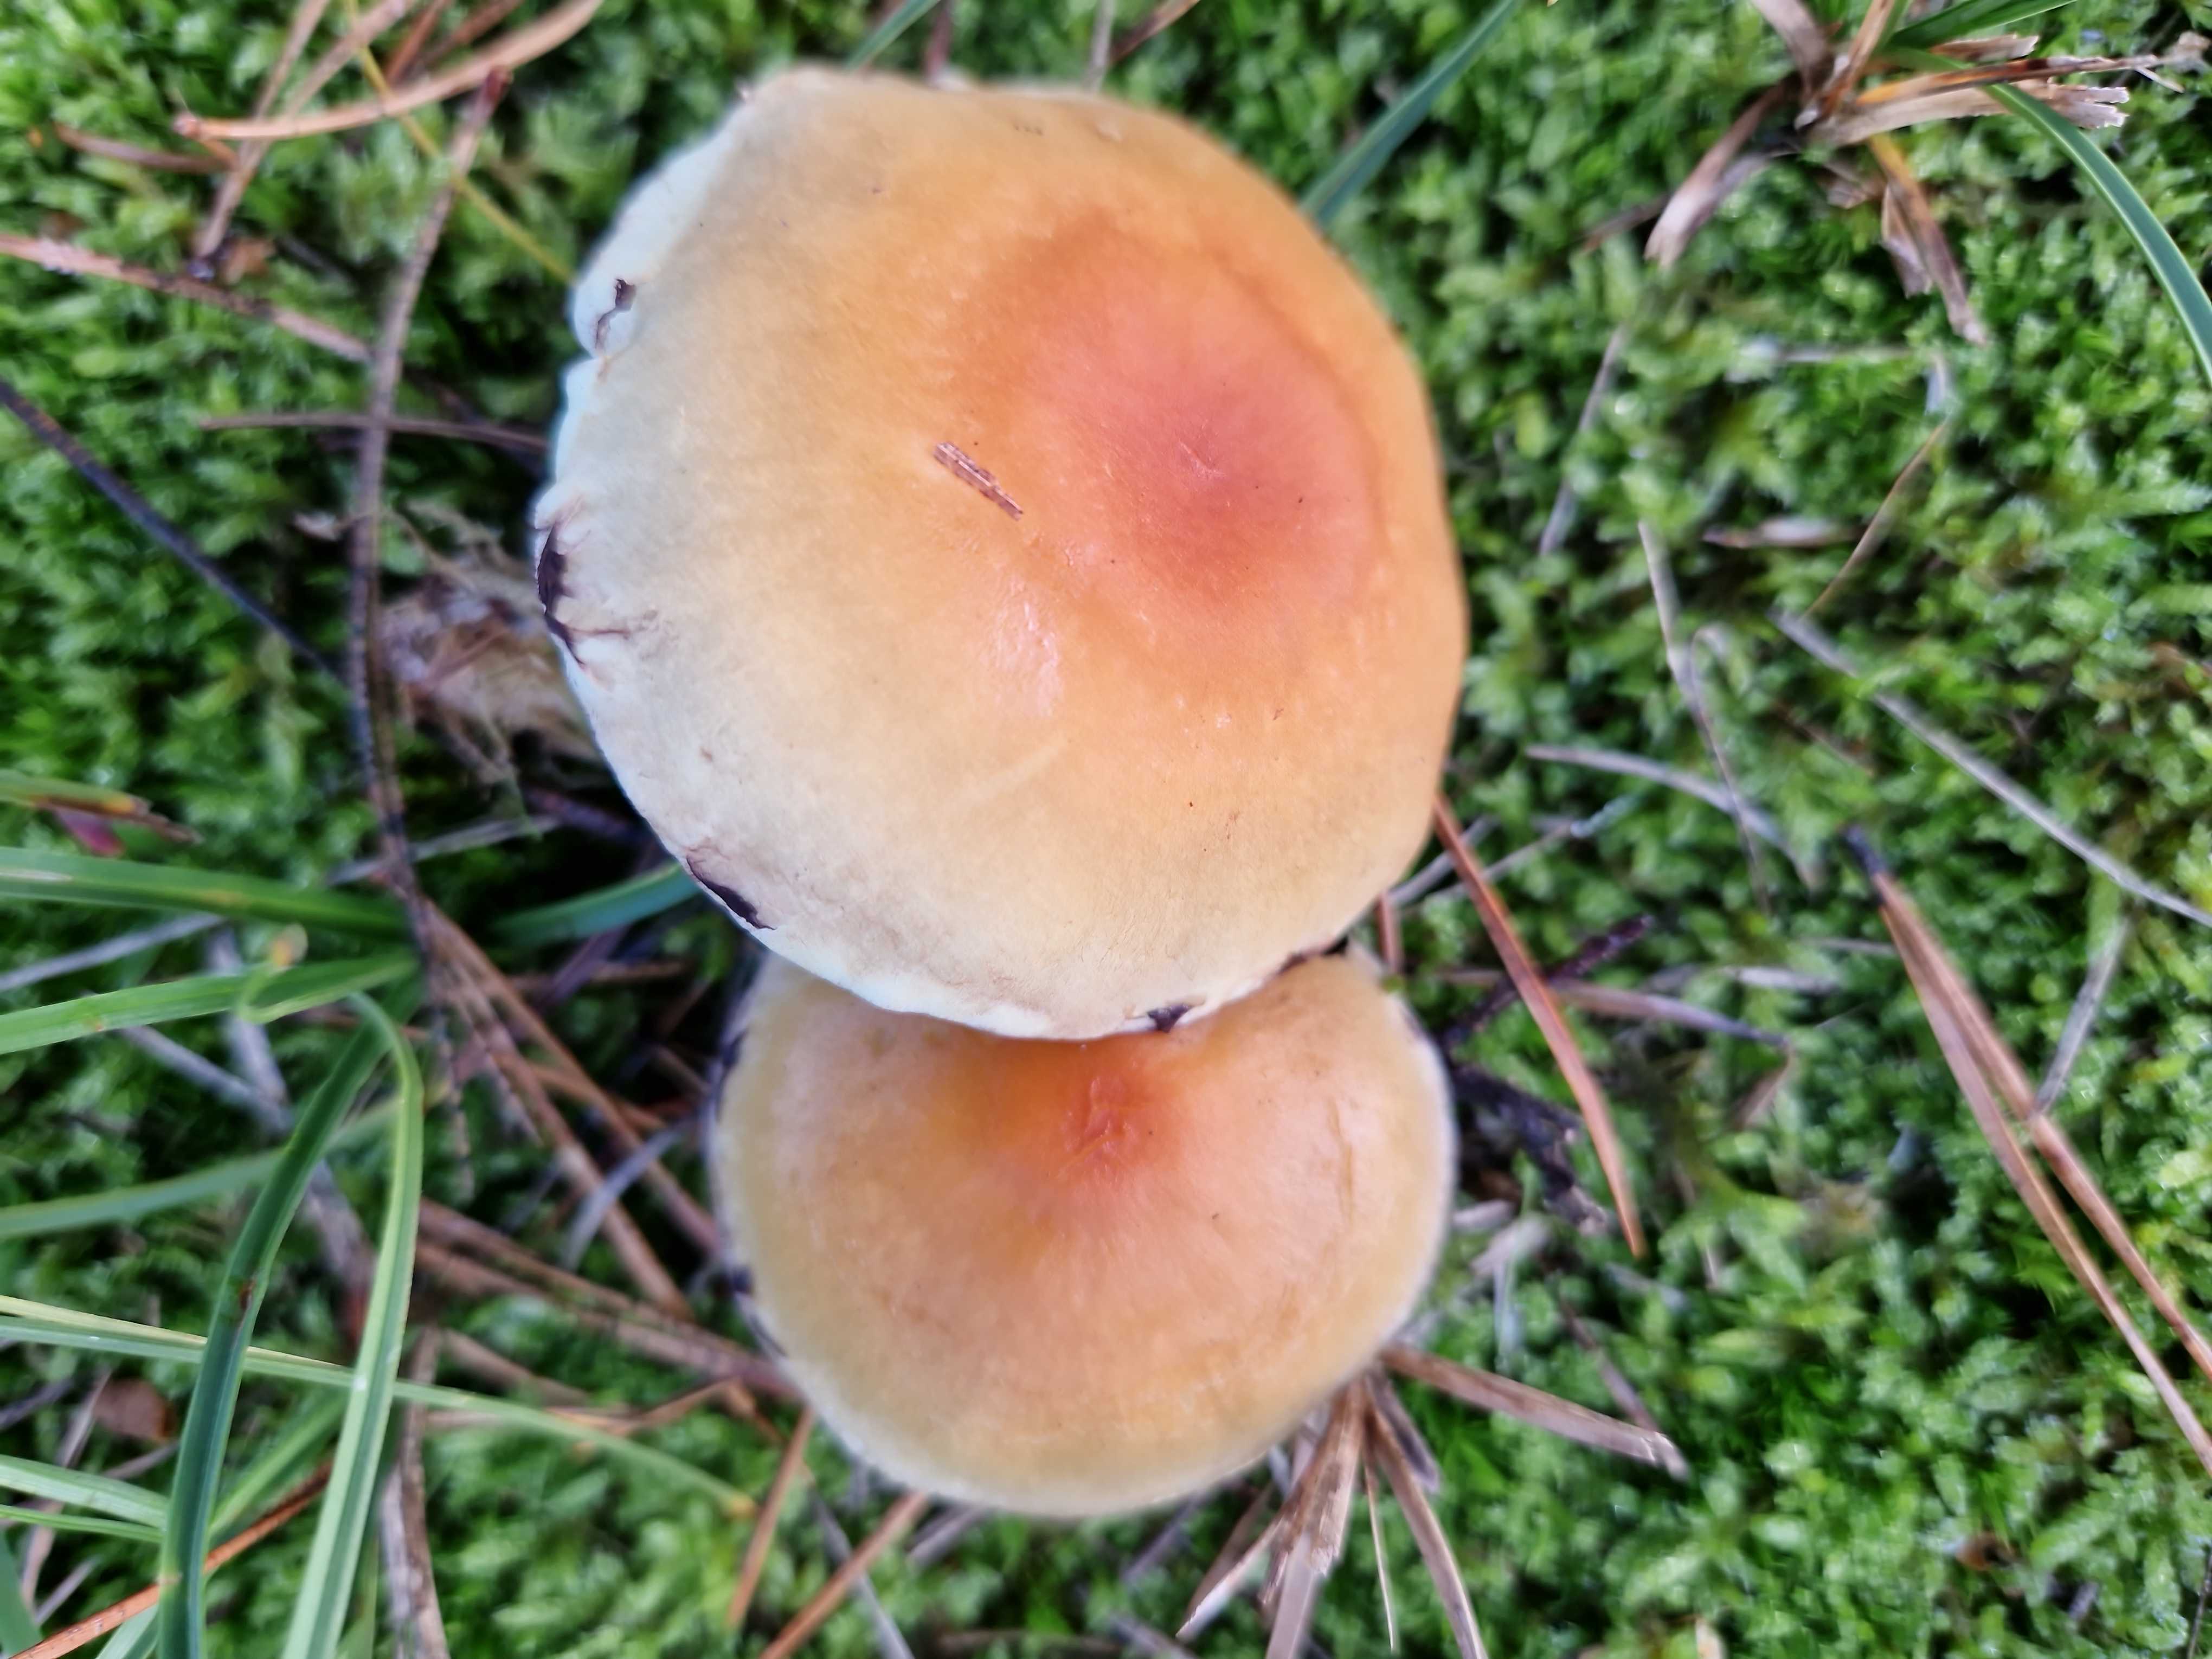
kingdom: Fungi
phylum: Basidiomycota
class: Agaricomycetes
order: Agaricales
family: Strophariaceae
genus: Hypholoma
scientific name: Hypholoma capnoides
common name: gran-svovlhat
